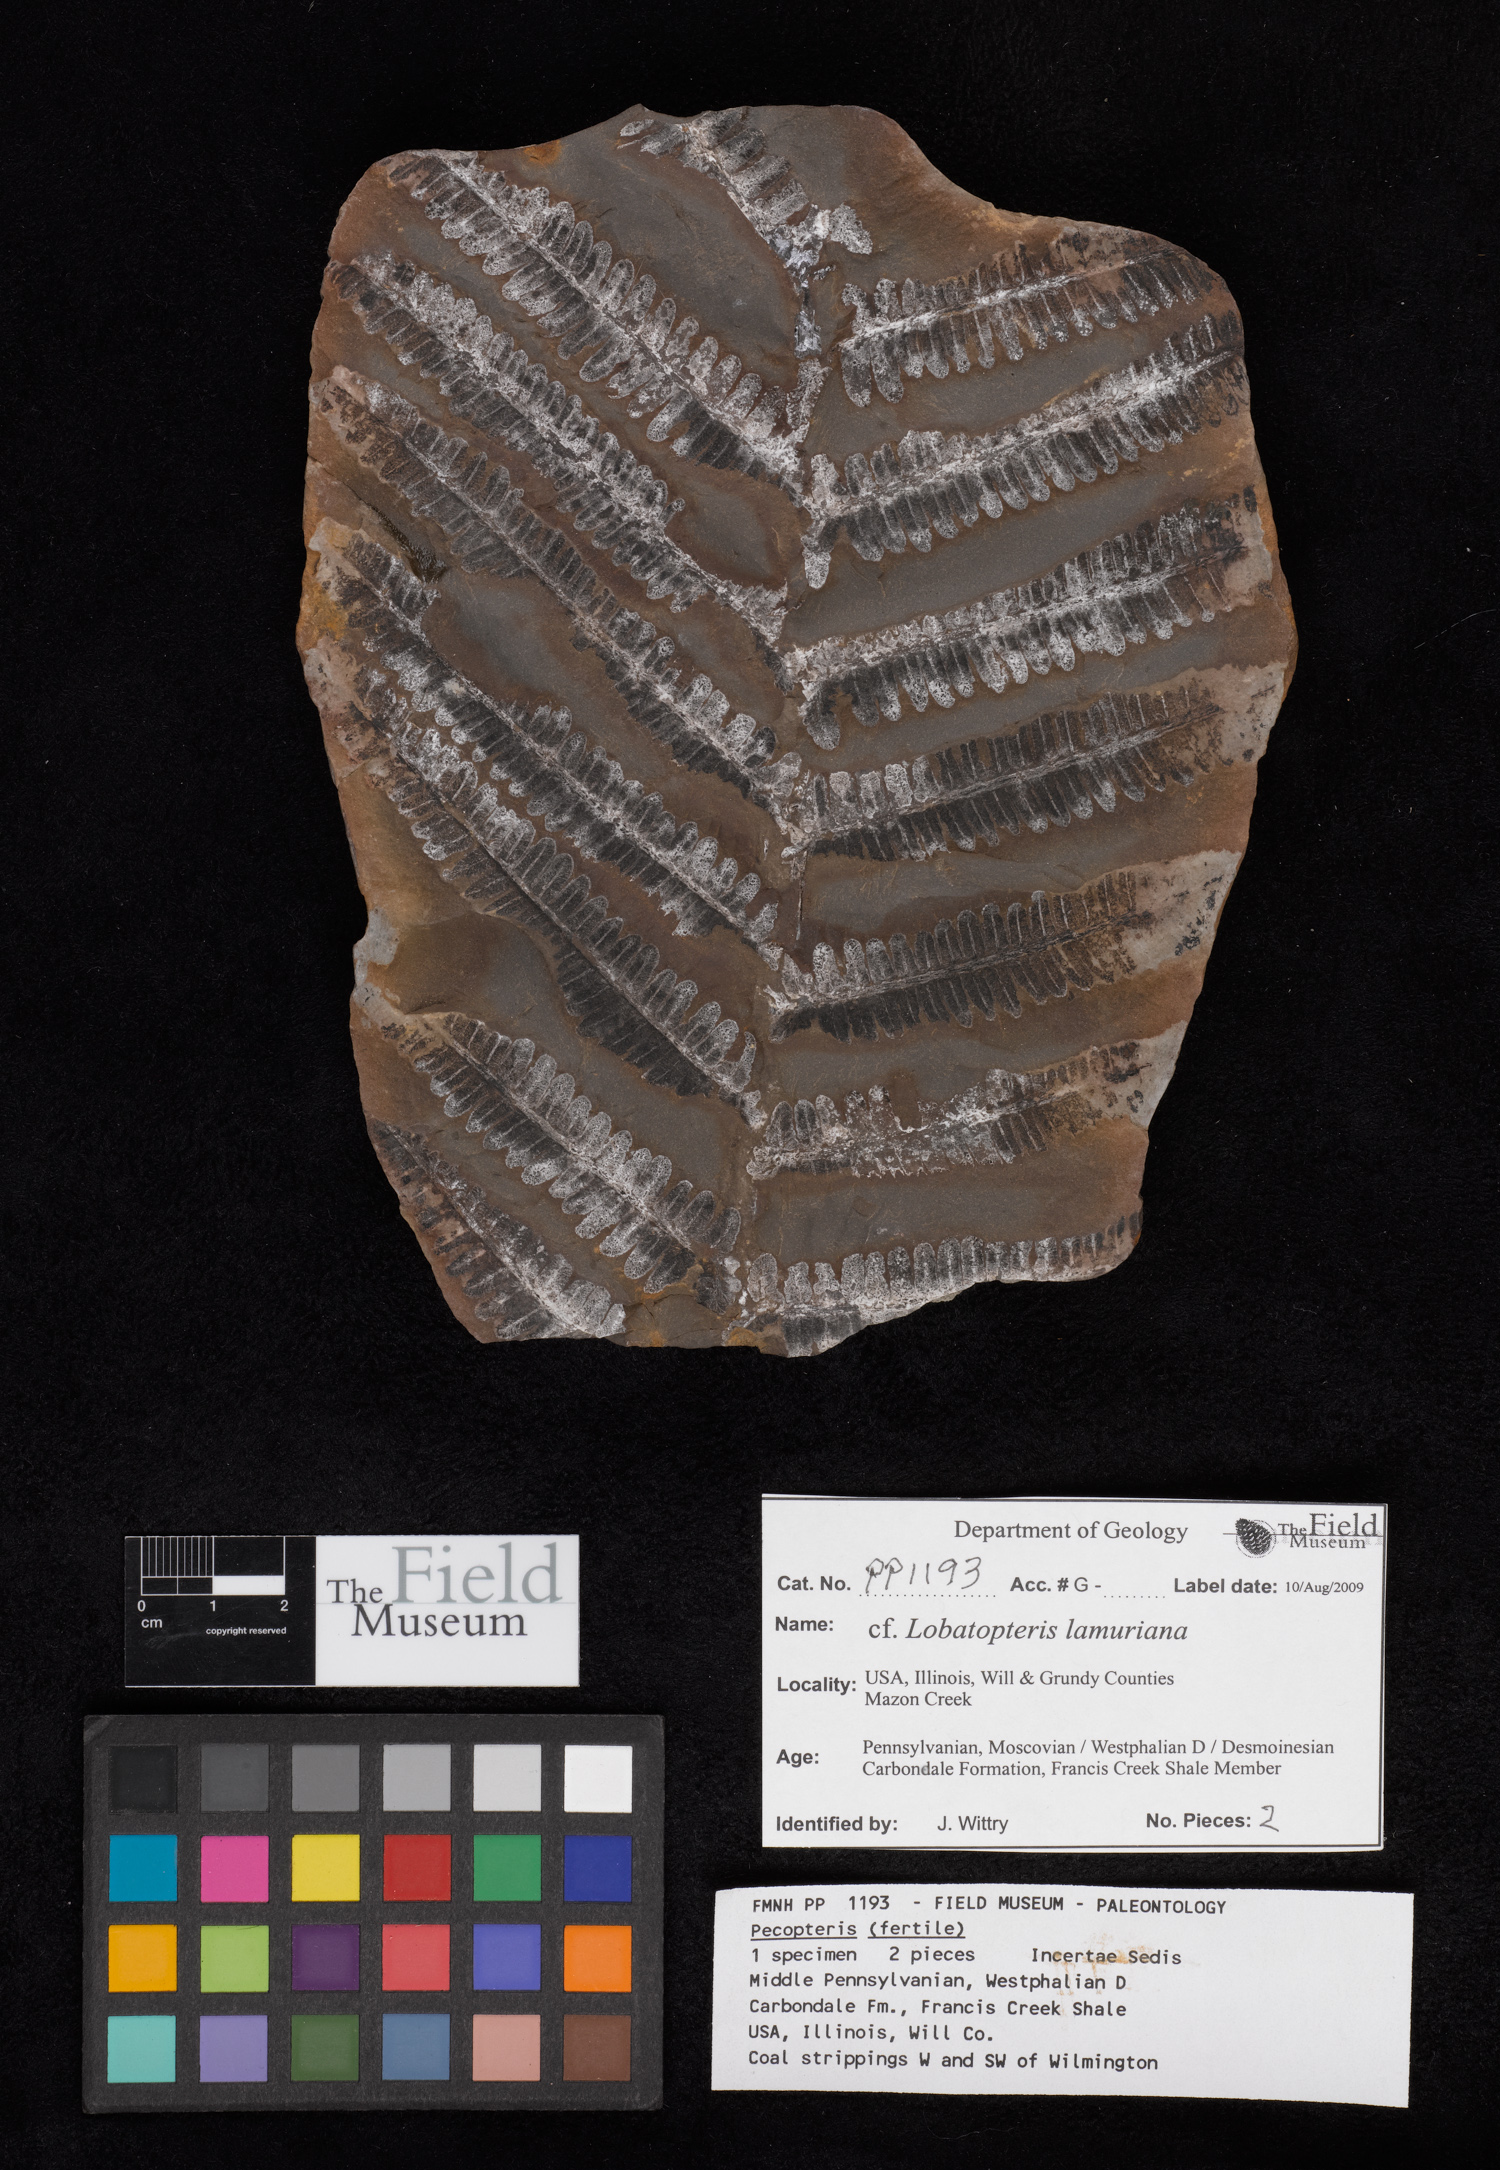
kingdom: Plantae
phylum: Tracheophyta
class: Polypodiopsida
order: Marattiales
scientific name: Marattiales
